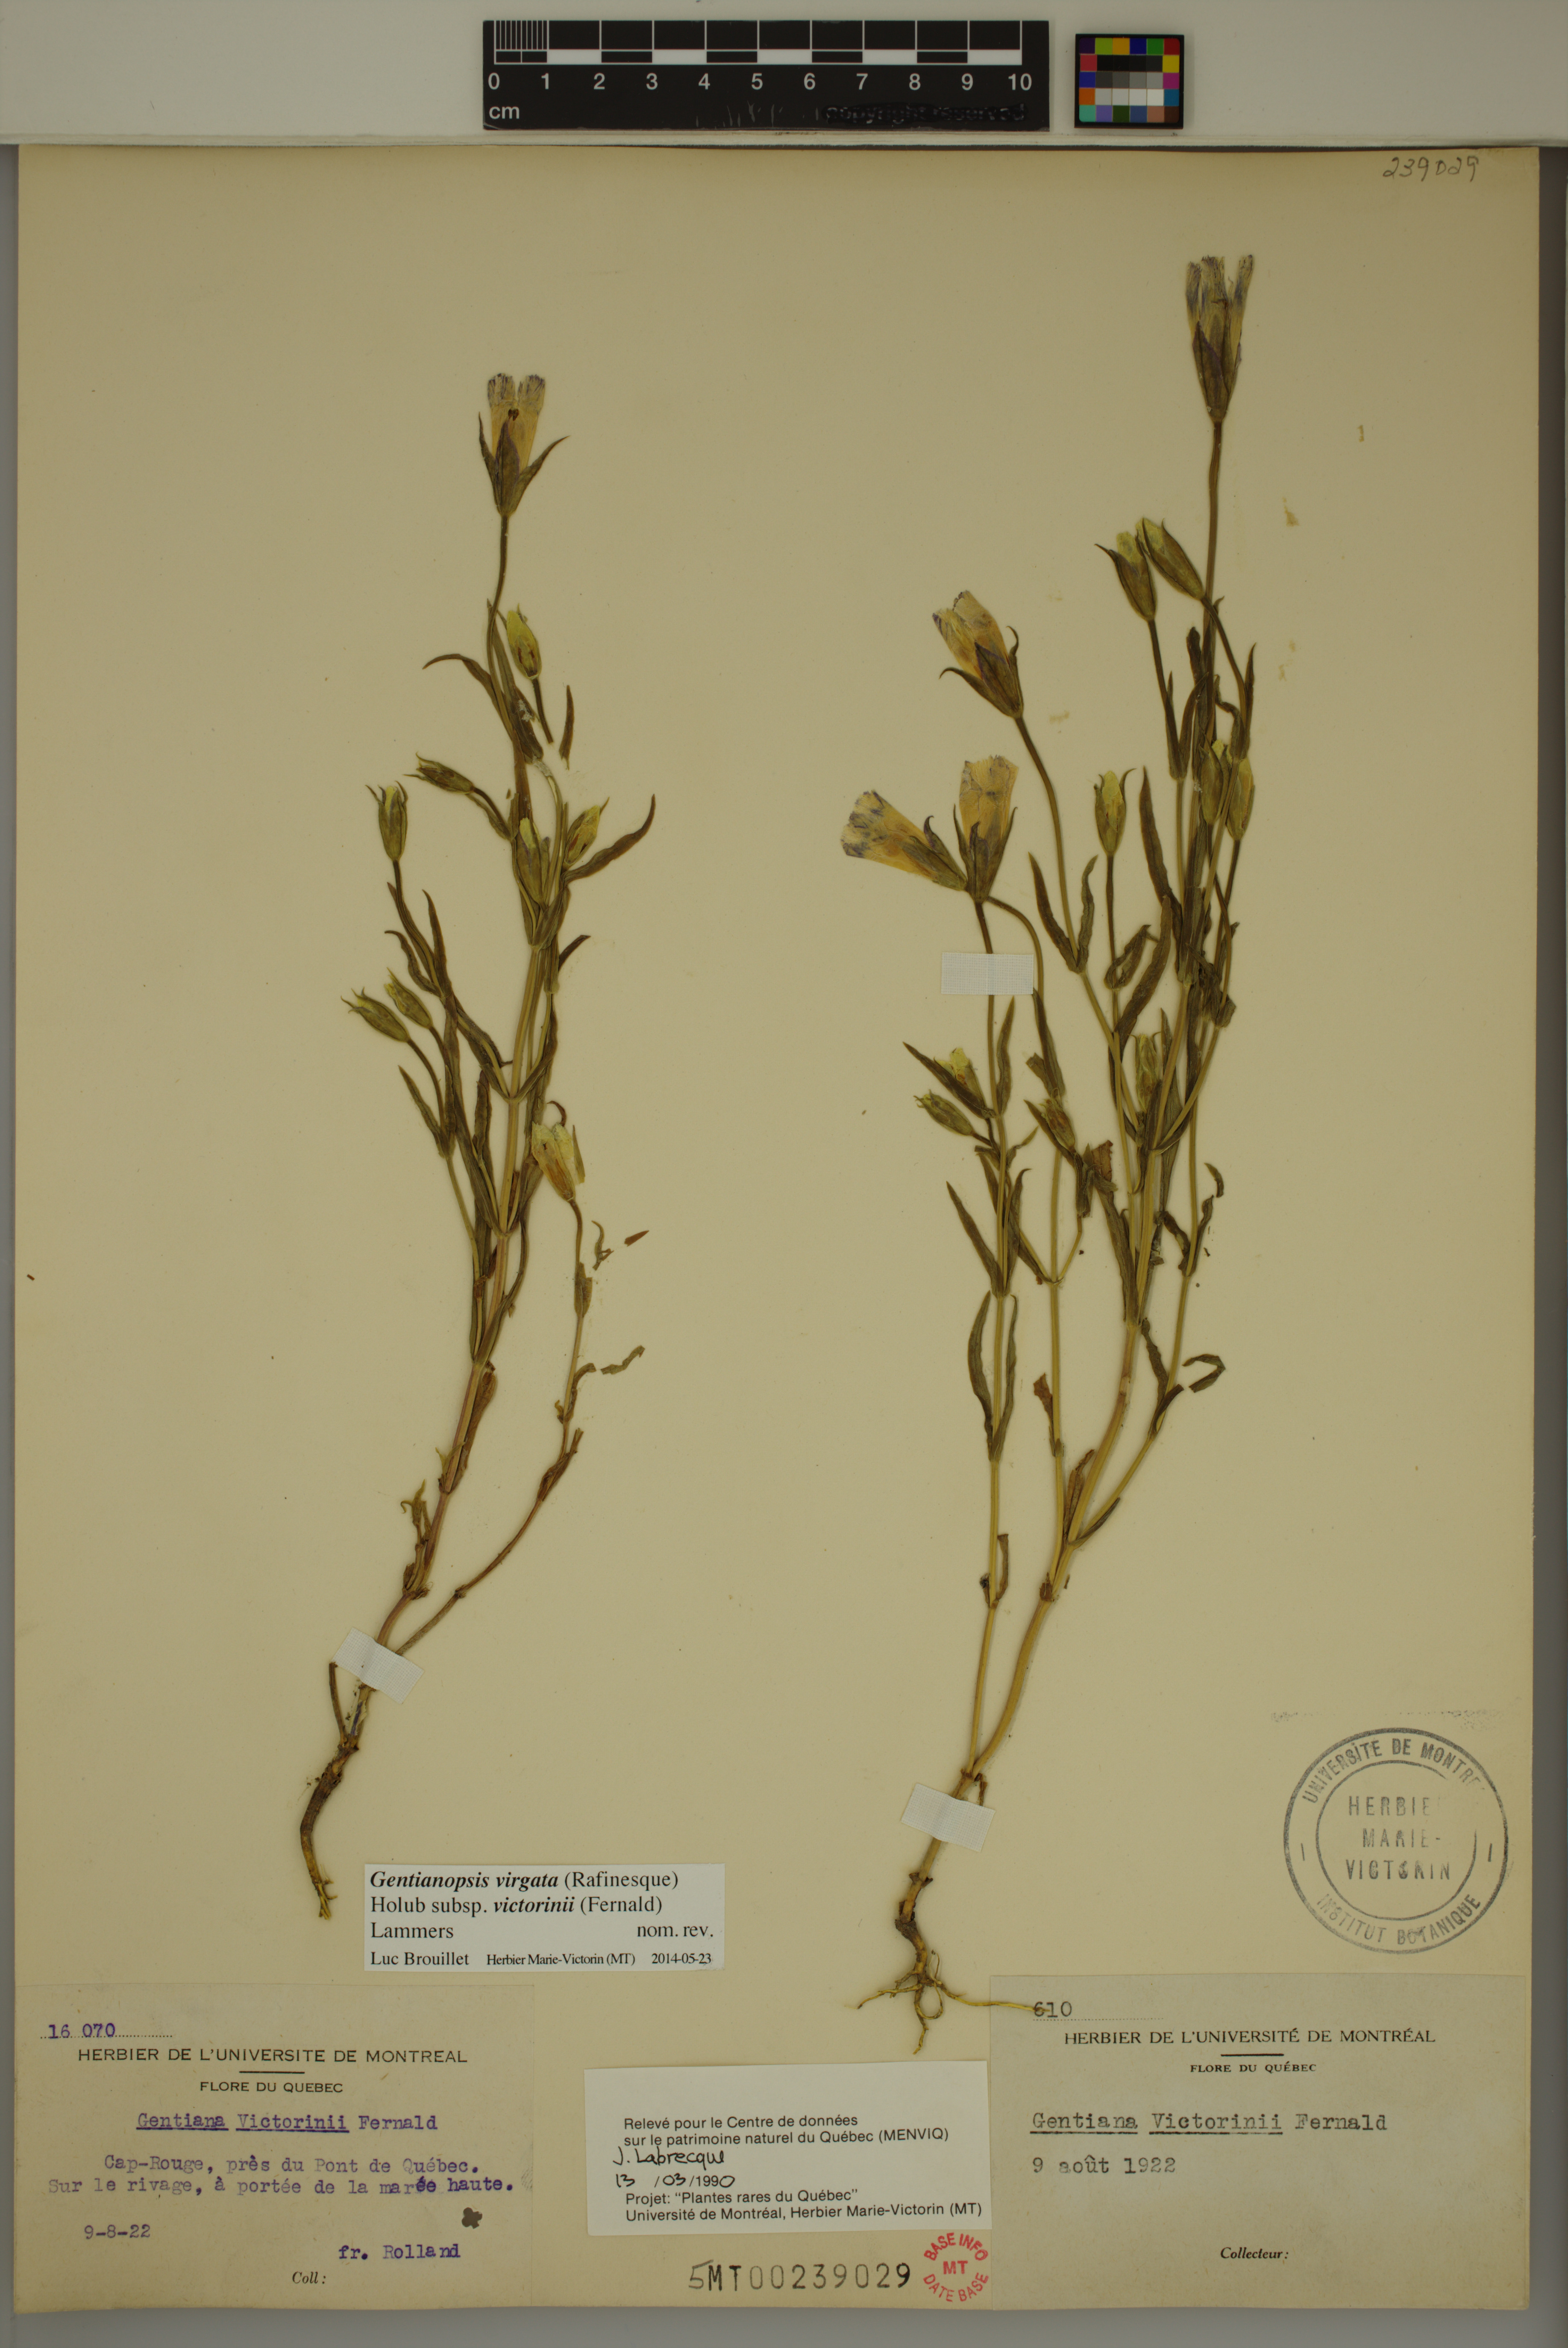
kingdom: Plantae
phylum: Tracheophyta
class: Magnoliopsida
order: Gentianales
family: Gentianaceae
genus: Gentianopsis
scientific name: Gentianopsis victorinii
